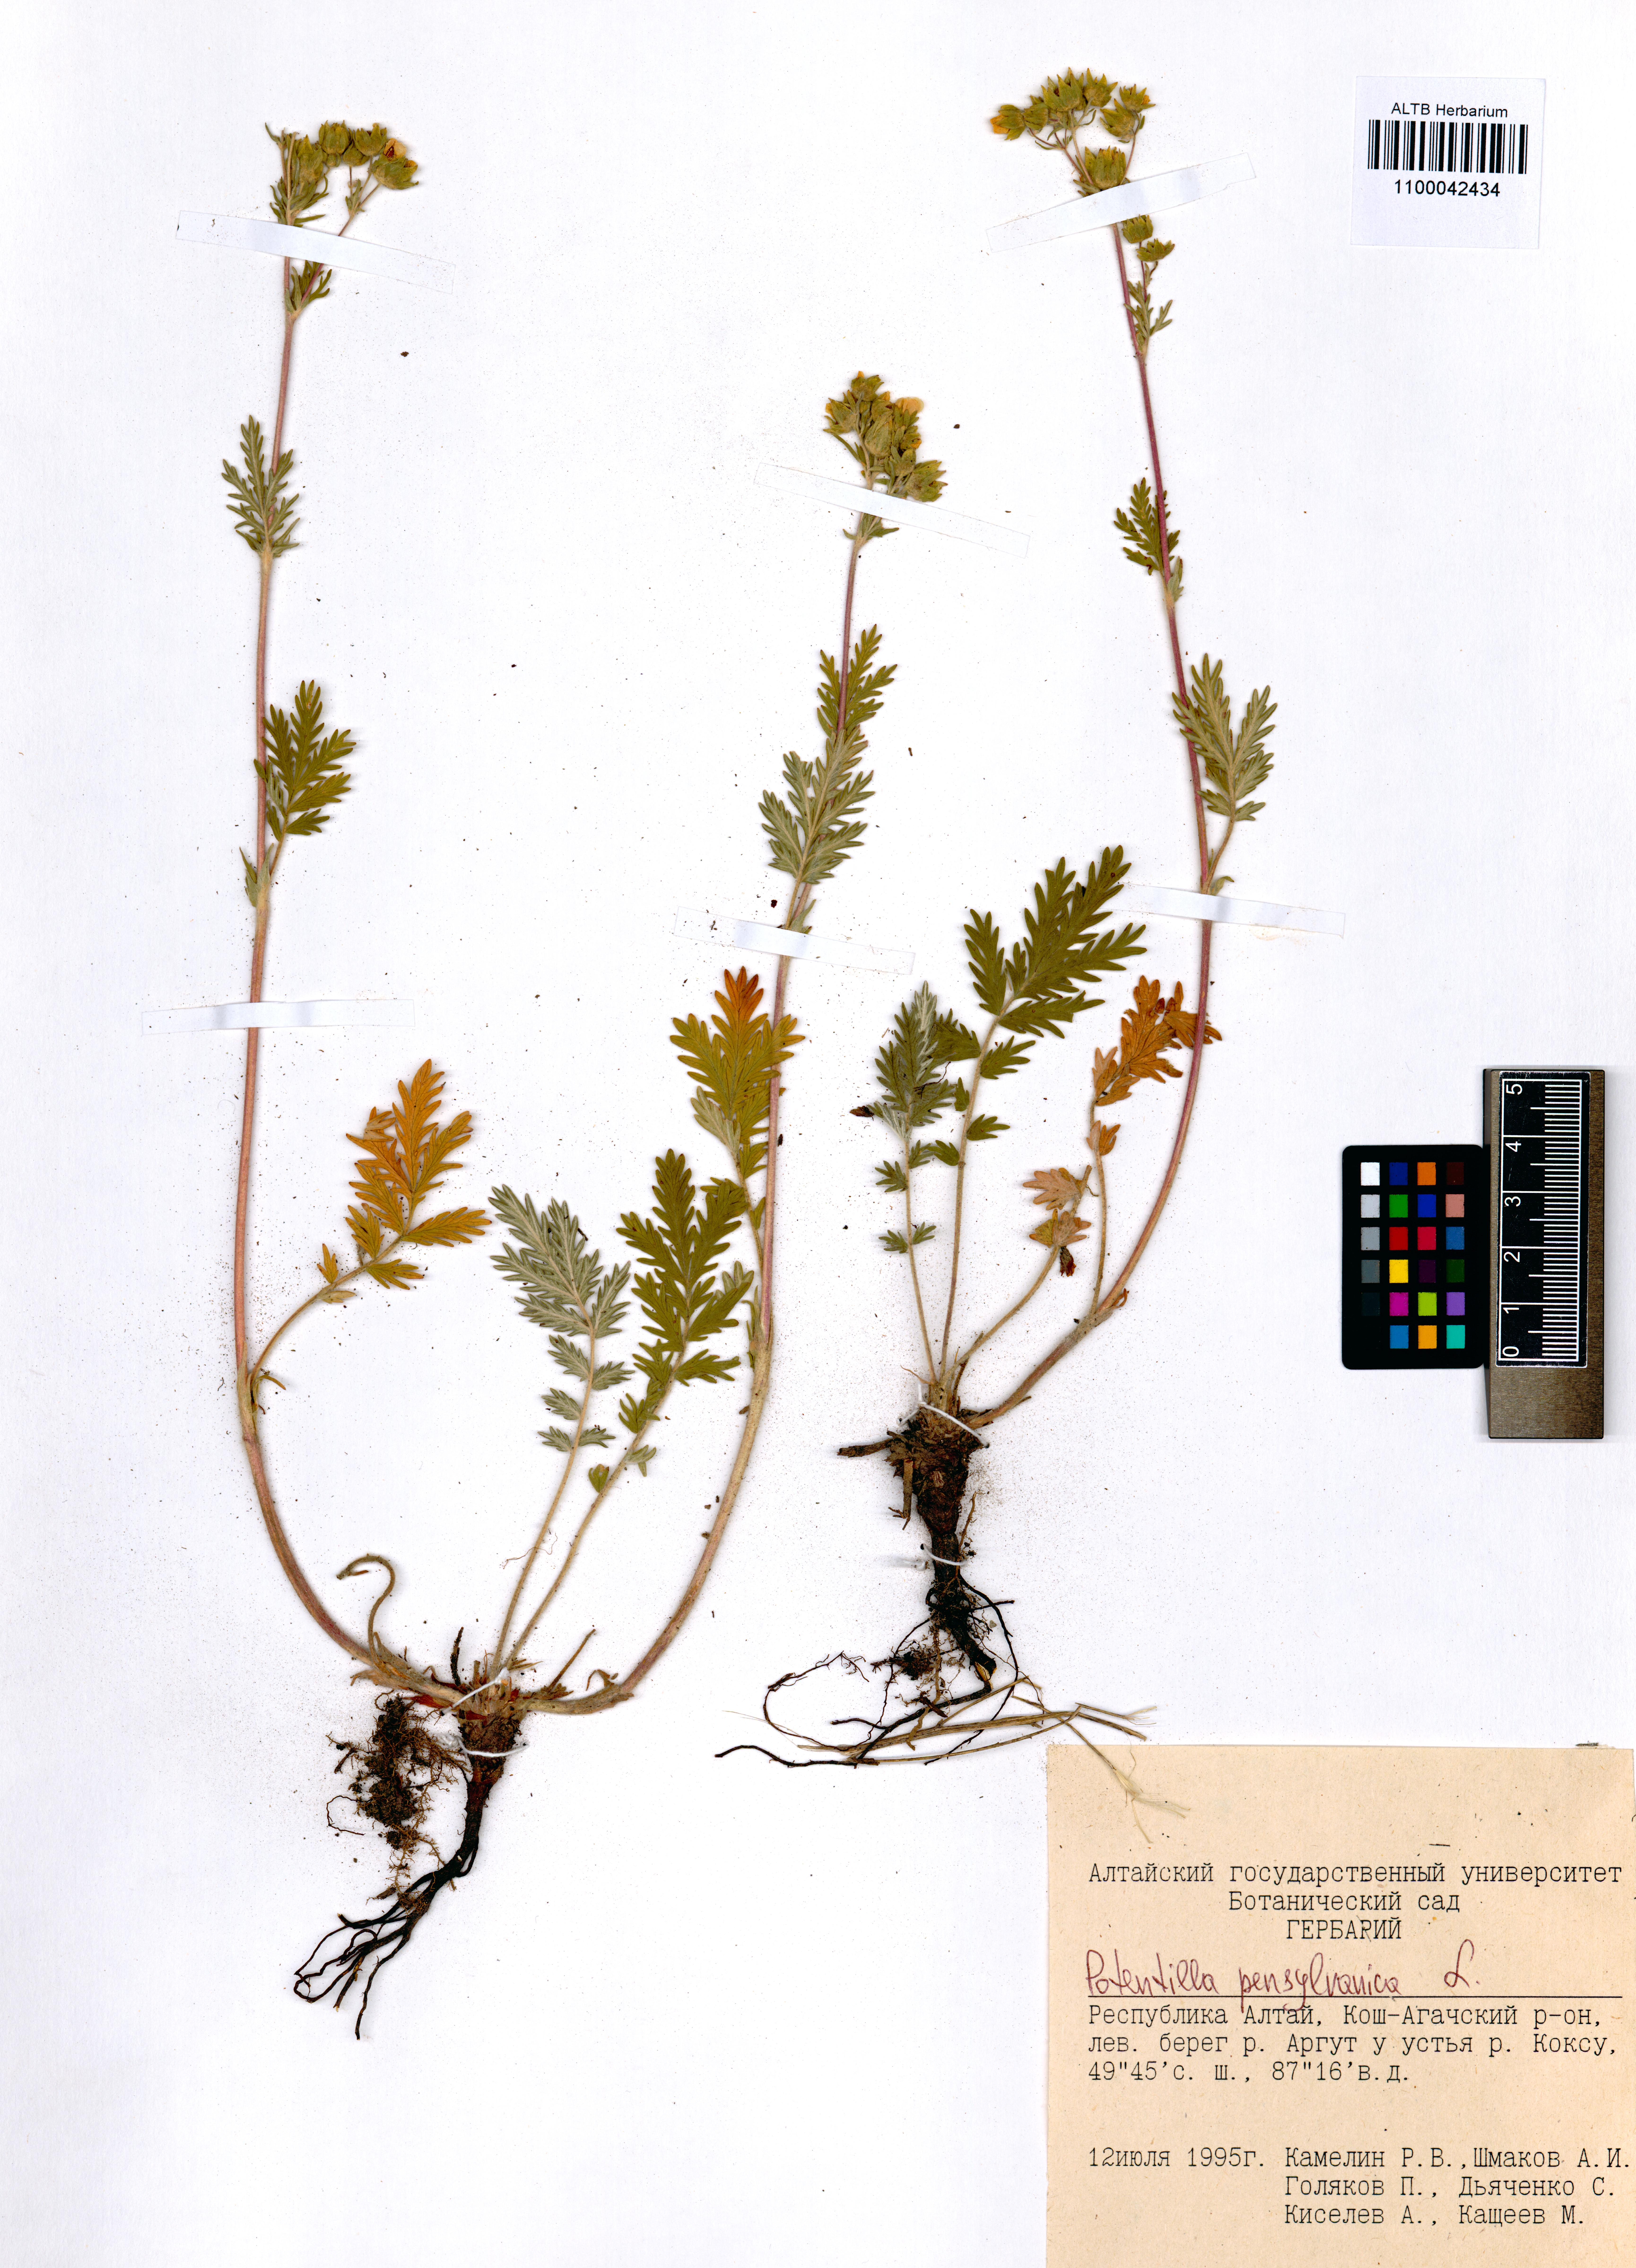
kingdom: Plantae
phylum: Tracheophyta
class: Magnoliopsida
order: Rosales
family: Rosaceae
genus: Potentilla
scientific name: Potentilla pensylvanica
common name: Pennsylvania cinquefoil
